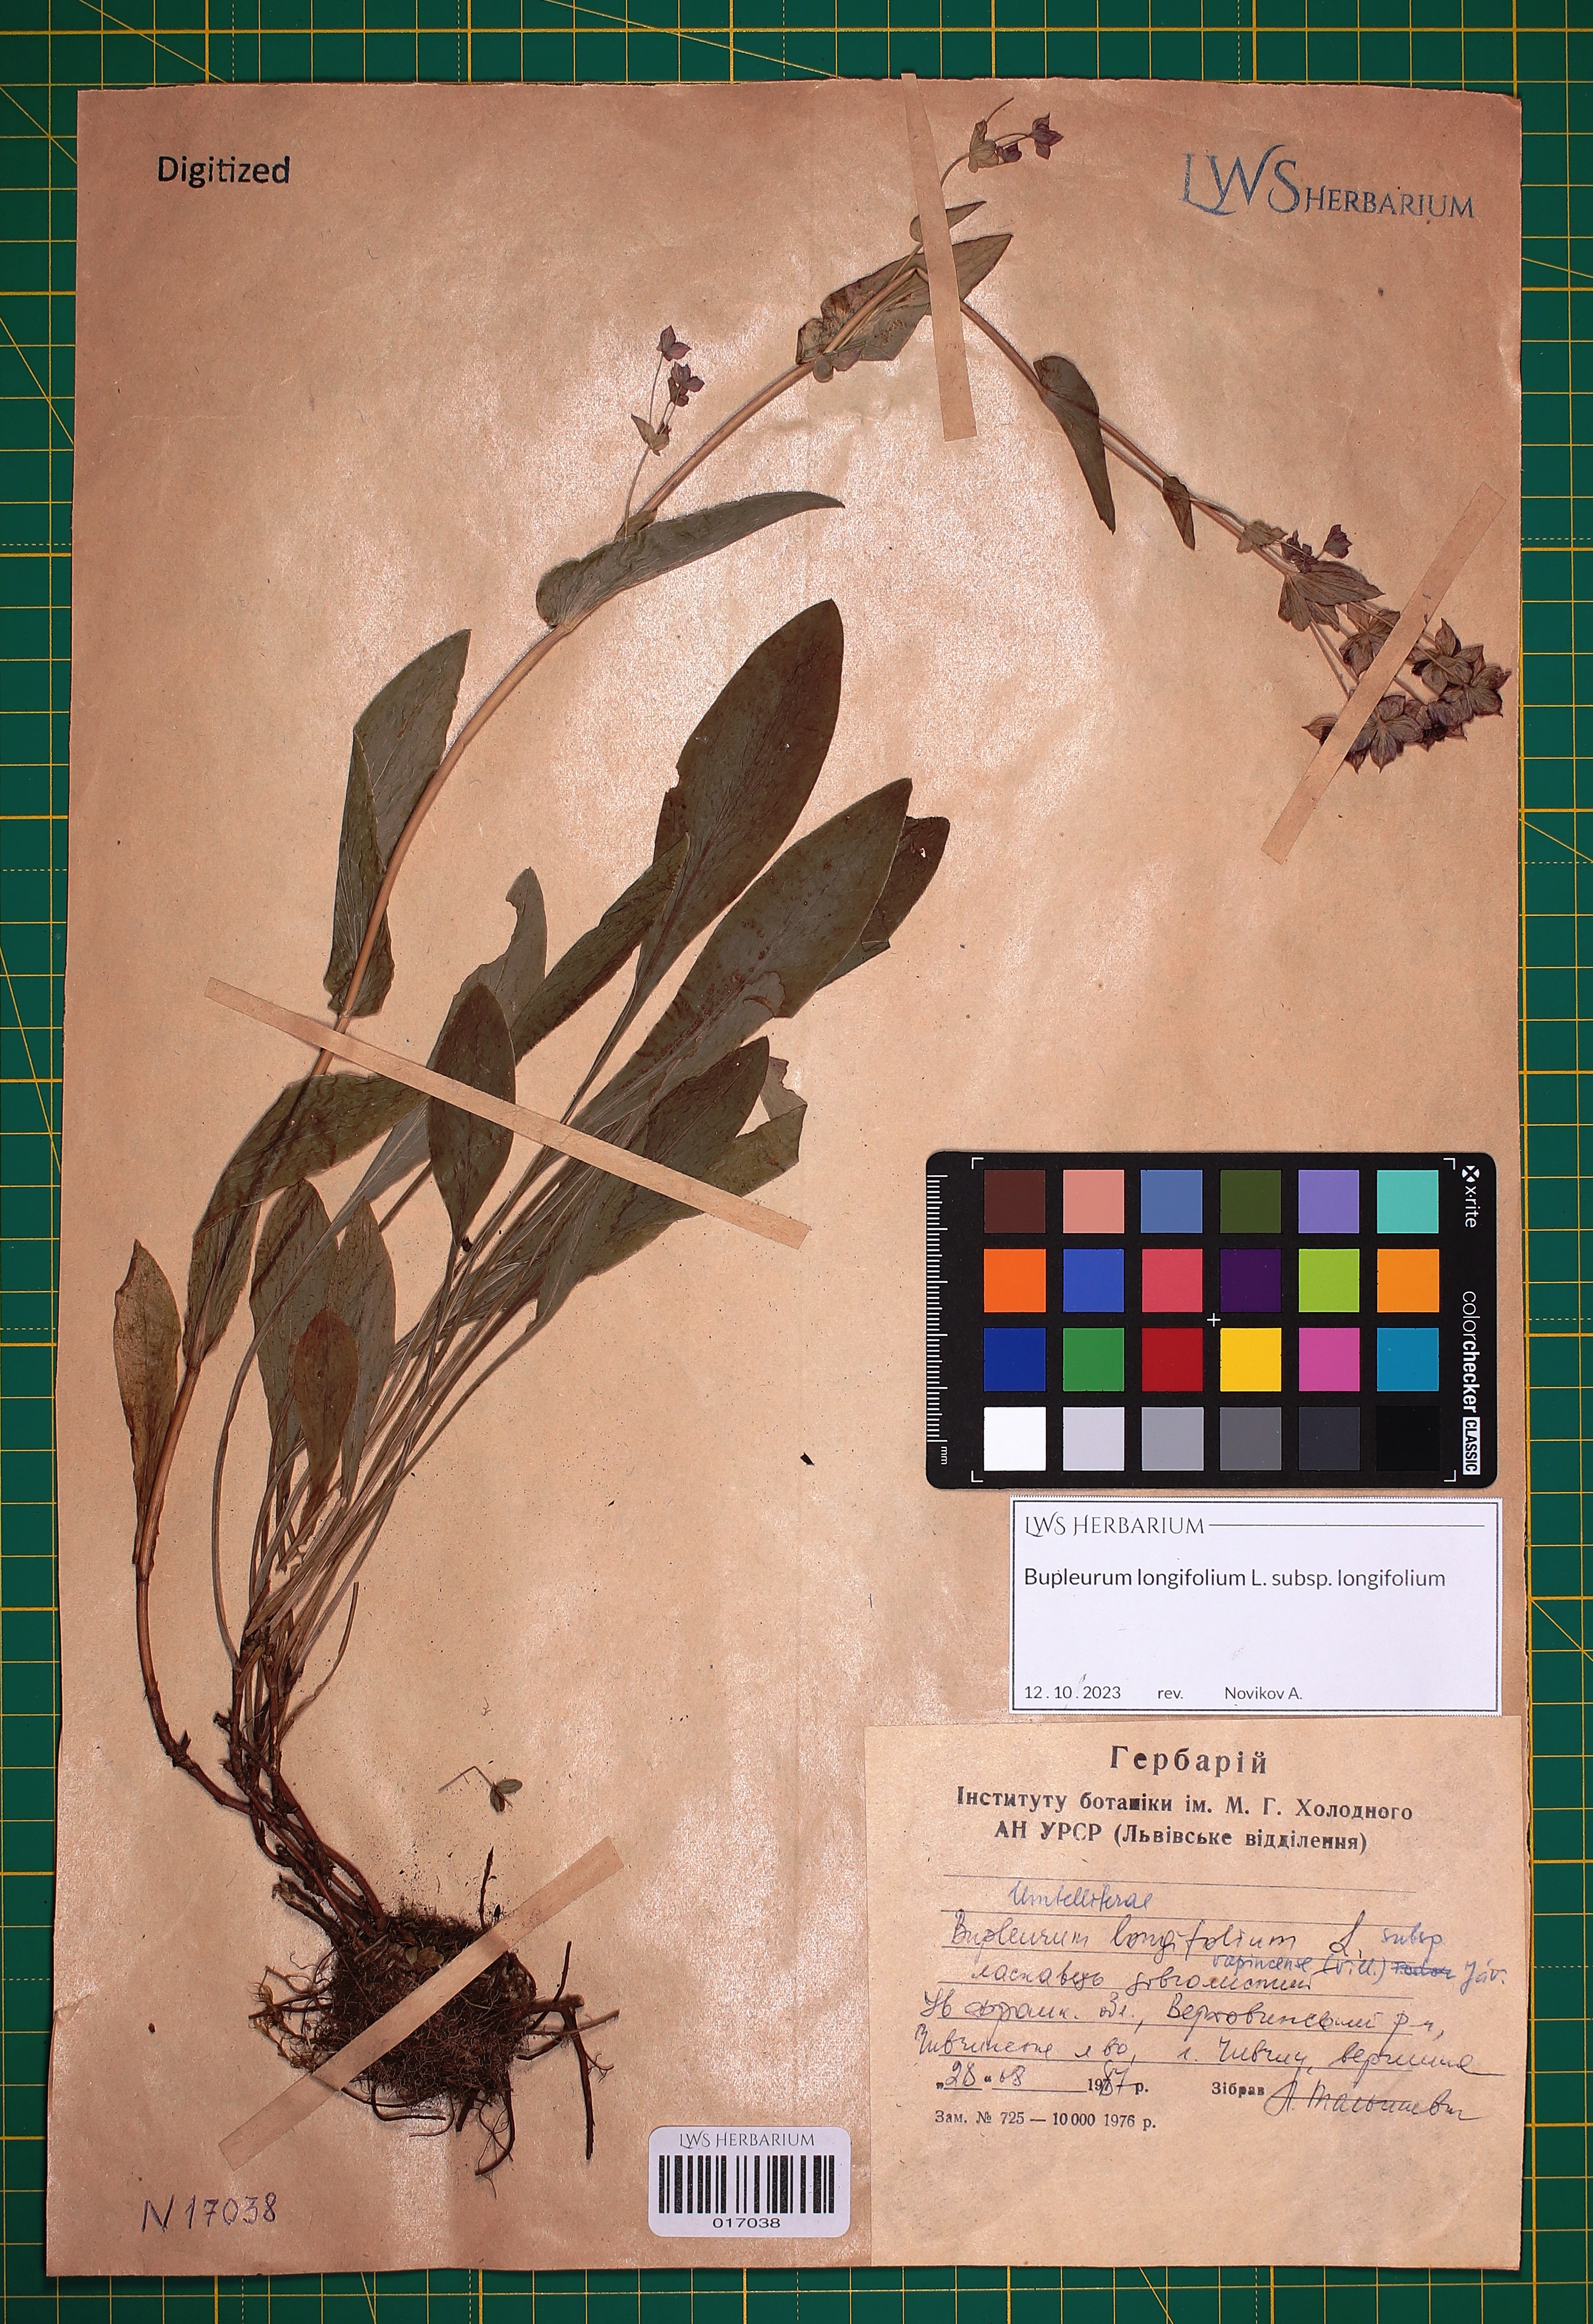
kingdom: Plantae
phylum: Tracheophyta
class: Magnoliopsida
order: Apiales
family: Apiaceae
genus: Bupleurum
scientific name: Bupleurum longifolium
